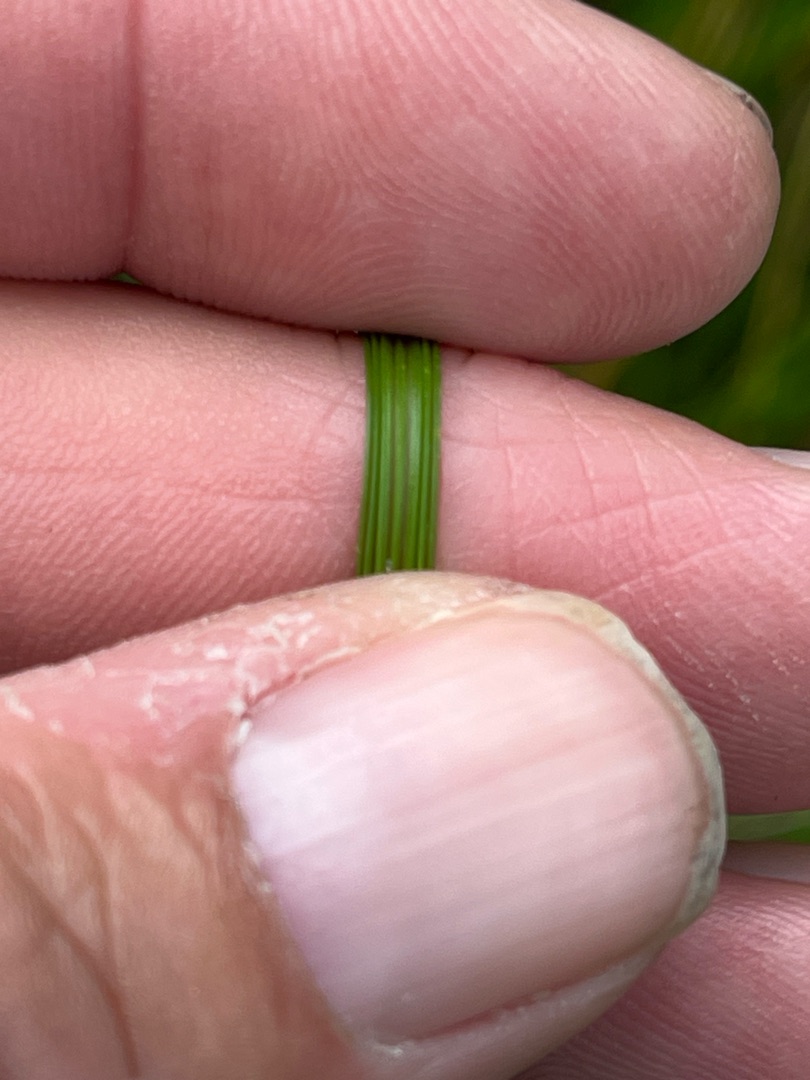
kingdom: Plantae
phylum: Tracheophyta
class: Liliopsida
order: Poales
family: Poaceae
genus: Deschampsia
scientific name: Deschampsia cespitosa
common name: Mose-bunke
